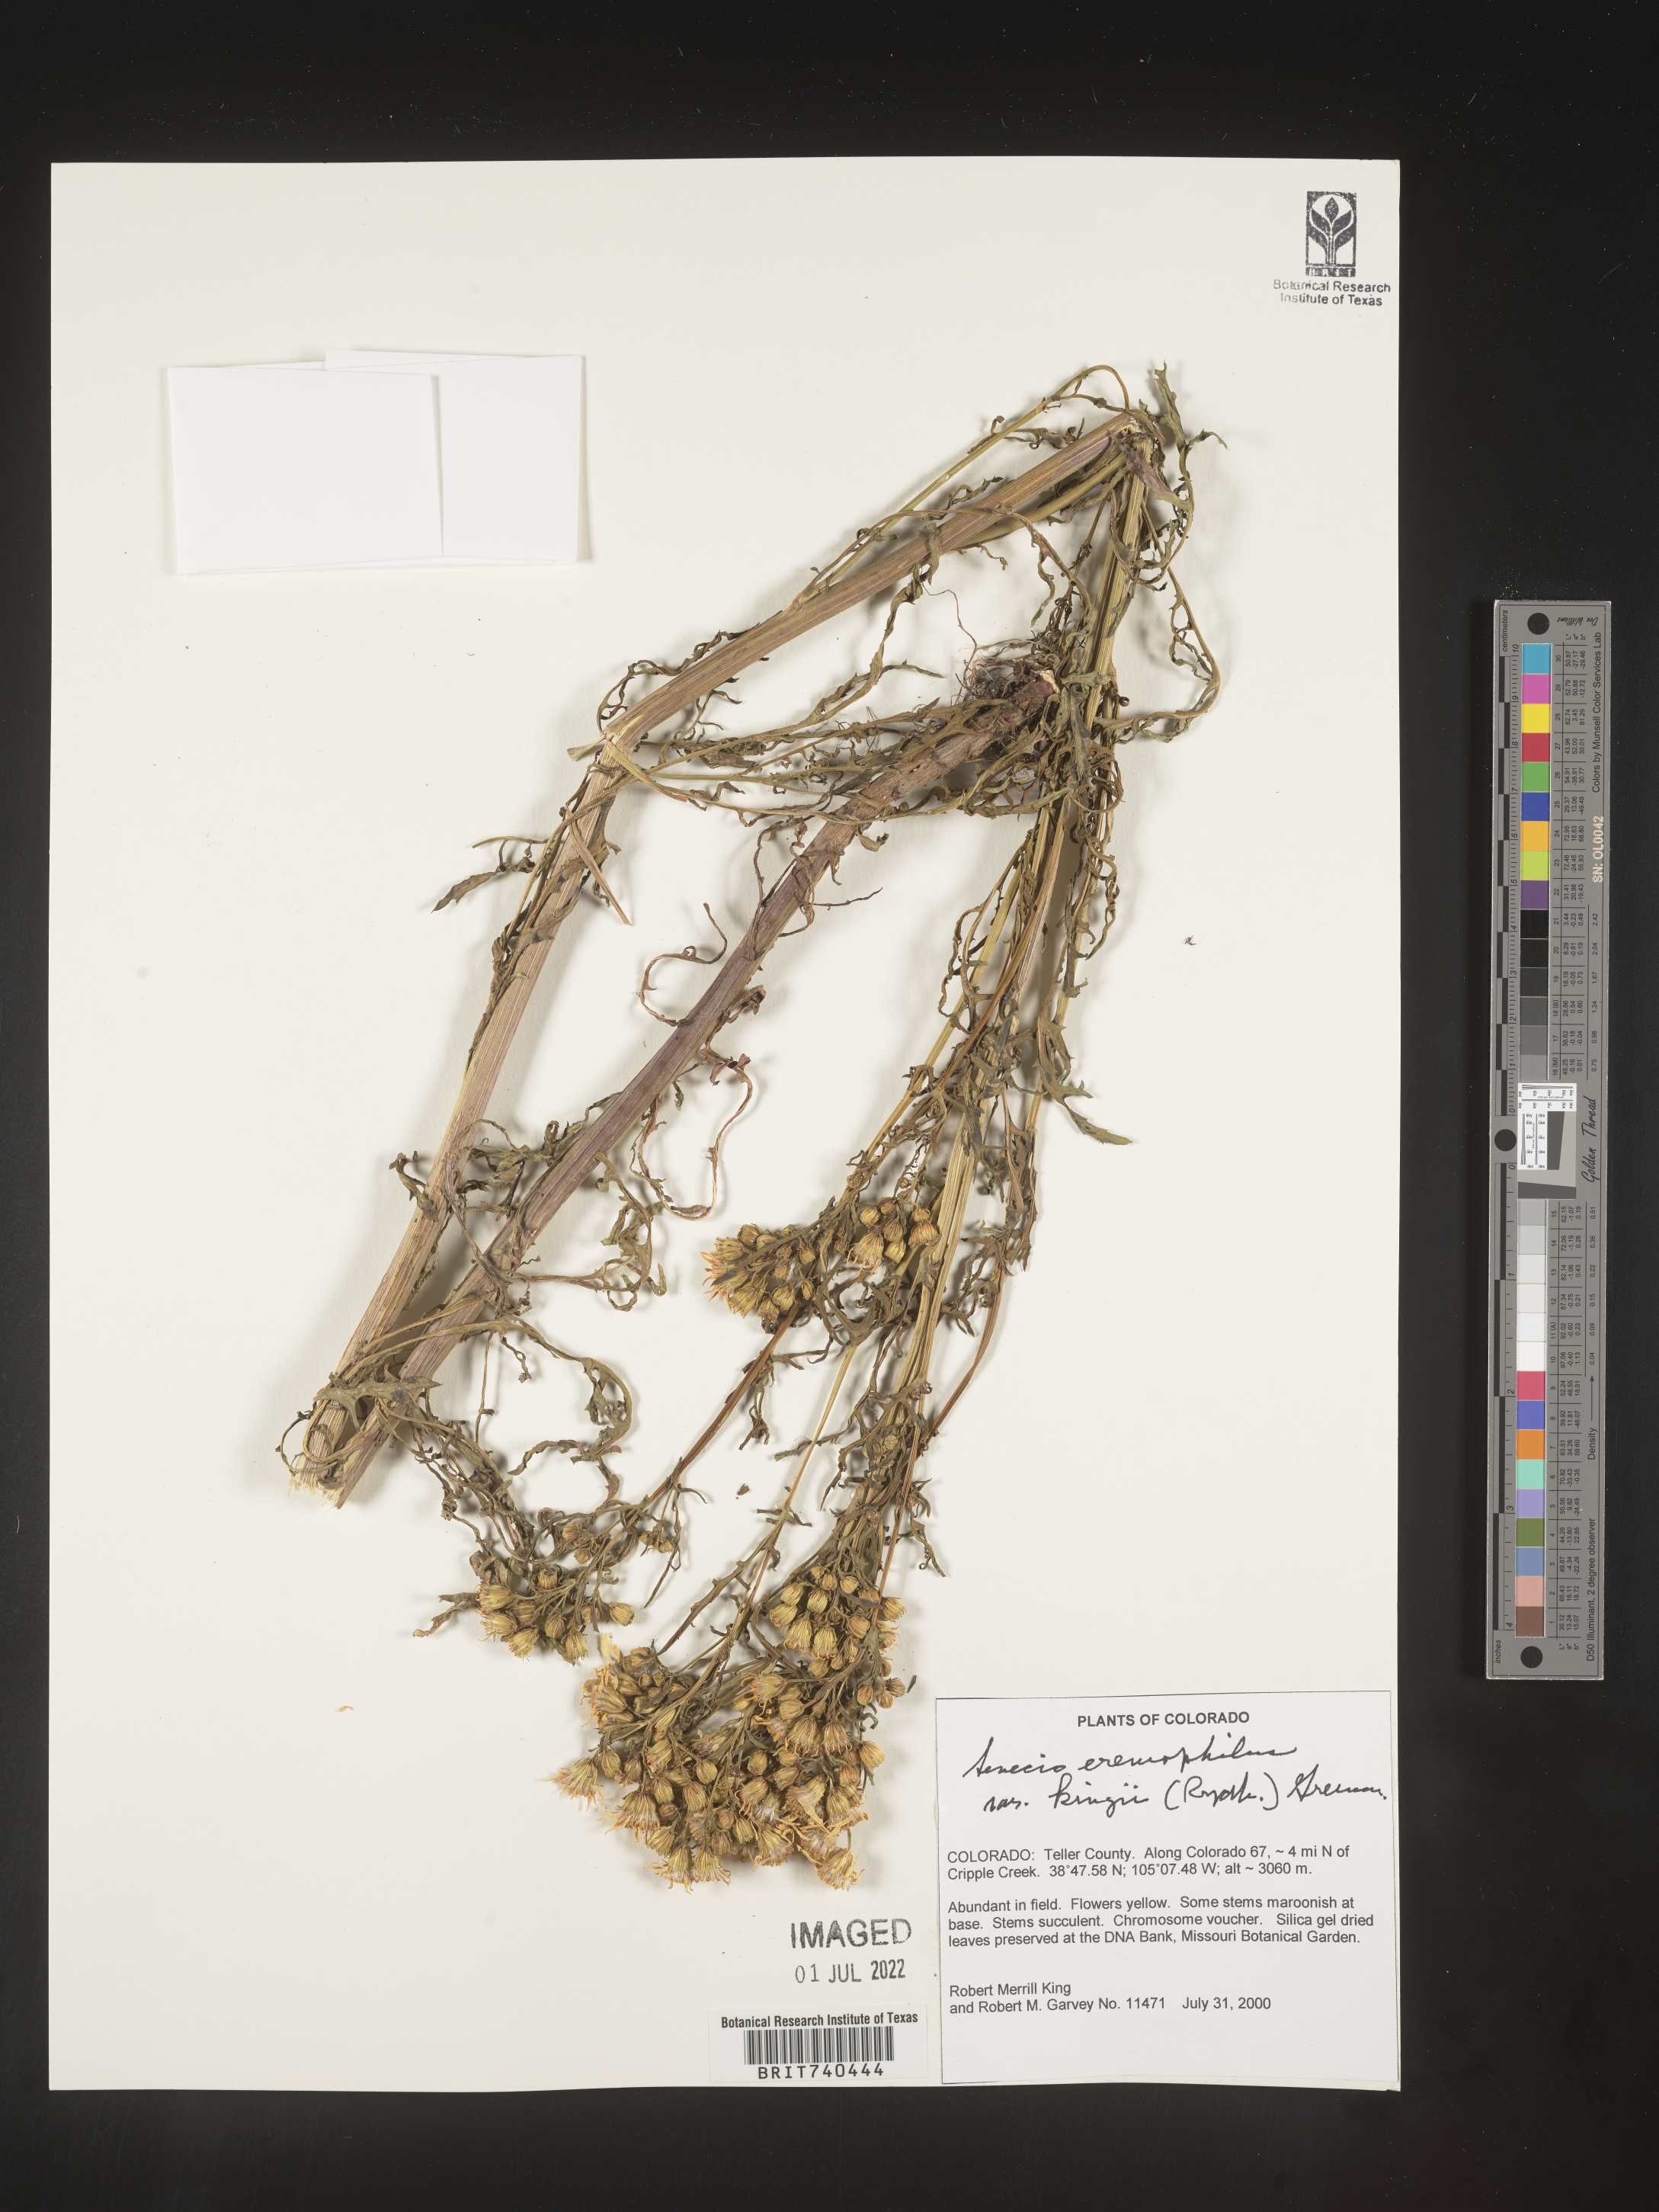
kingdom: Plantae
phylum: Tracheophyta
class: Magnoliopsida
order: Asterales
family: Asteraceae
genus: Senecio
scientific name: Senecio eremophilus
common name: Desert ragwort
